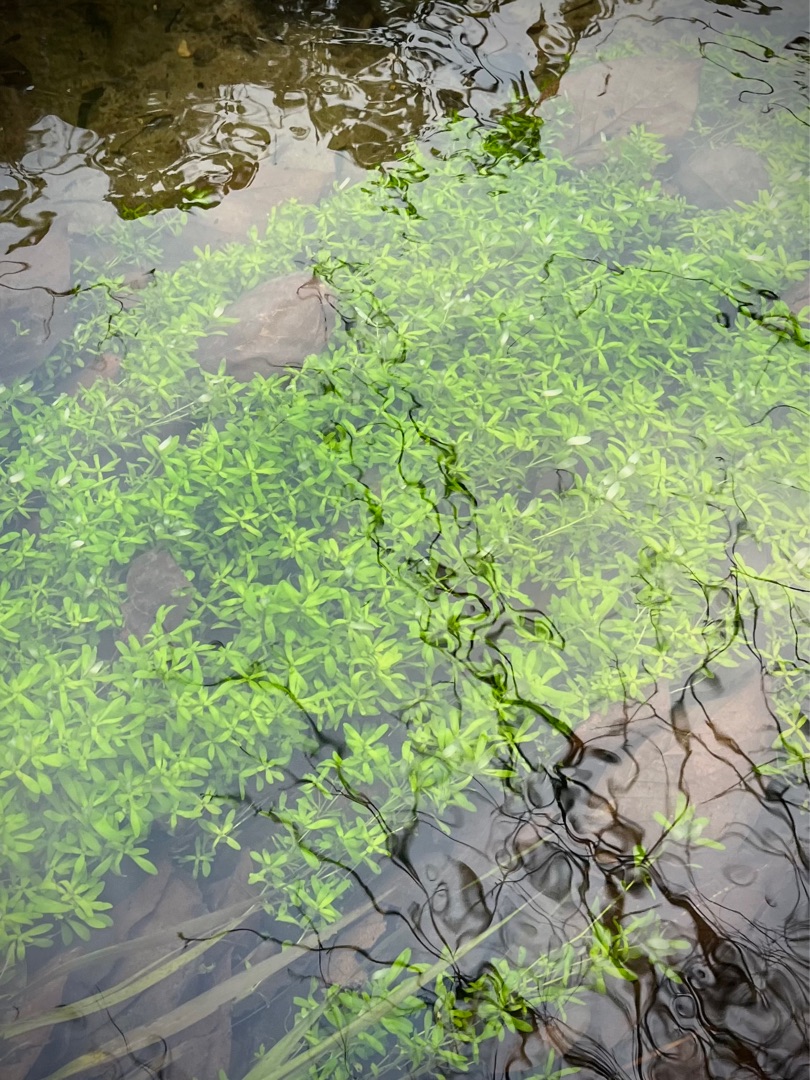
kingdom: Plantae
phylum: Tracheophyta
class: Magnoliopsida
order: Lamiales
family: Plantaginaceae
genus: Callitriche
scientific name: Callitriche
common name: Vandstjerneslægten
